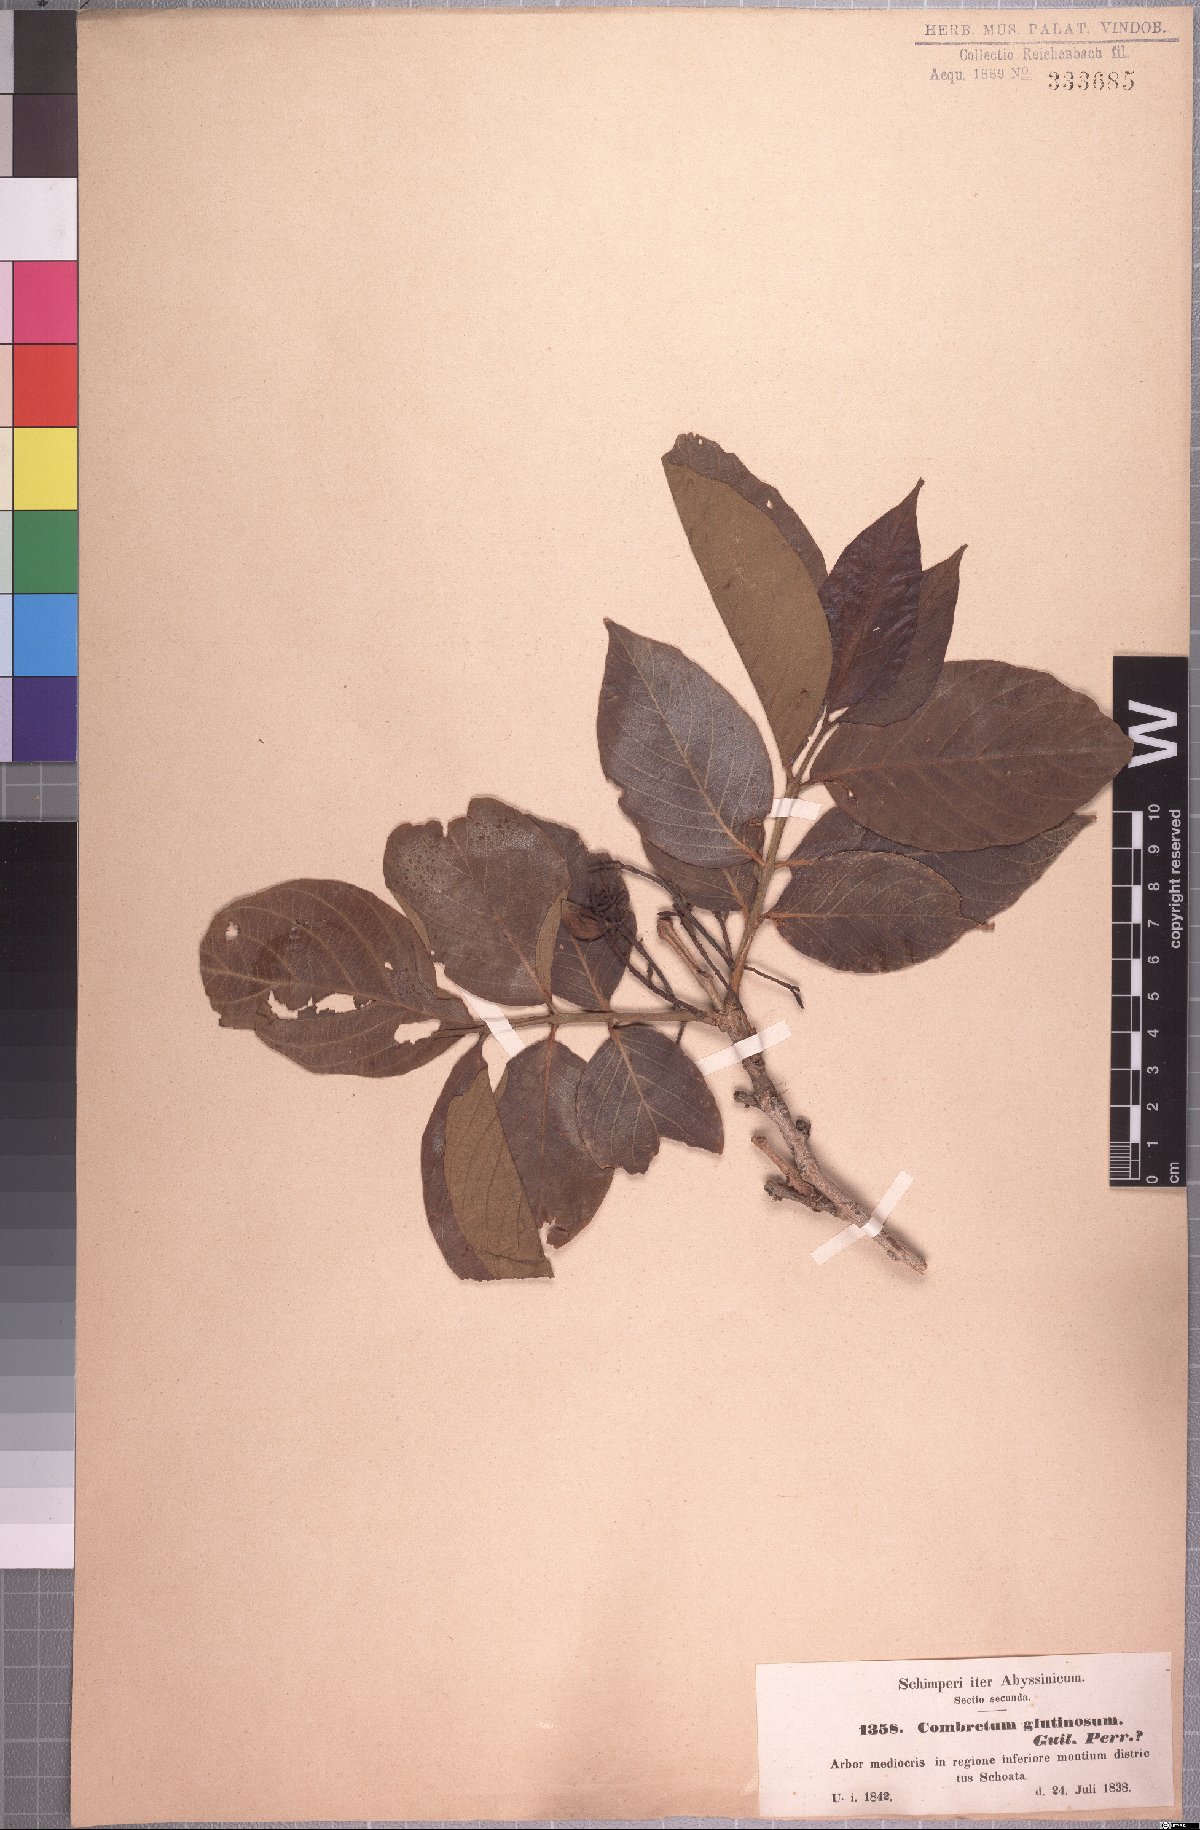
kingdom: Plantae
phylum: Tracheophyta
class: Magnoliopsida
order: Myrtales
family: Combretaceae
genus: Combretum
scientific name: Combretum molle
